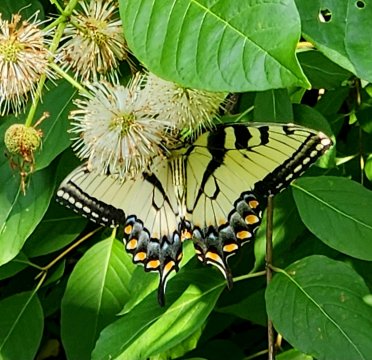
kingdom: Animalia
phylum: Arthropoda
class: Insecta
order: Lepidoptera
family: Papilionidae
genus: Pterourus
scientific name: Pterourus glaucus
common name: Eastern Tiger Swallowtail
